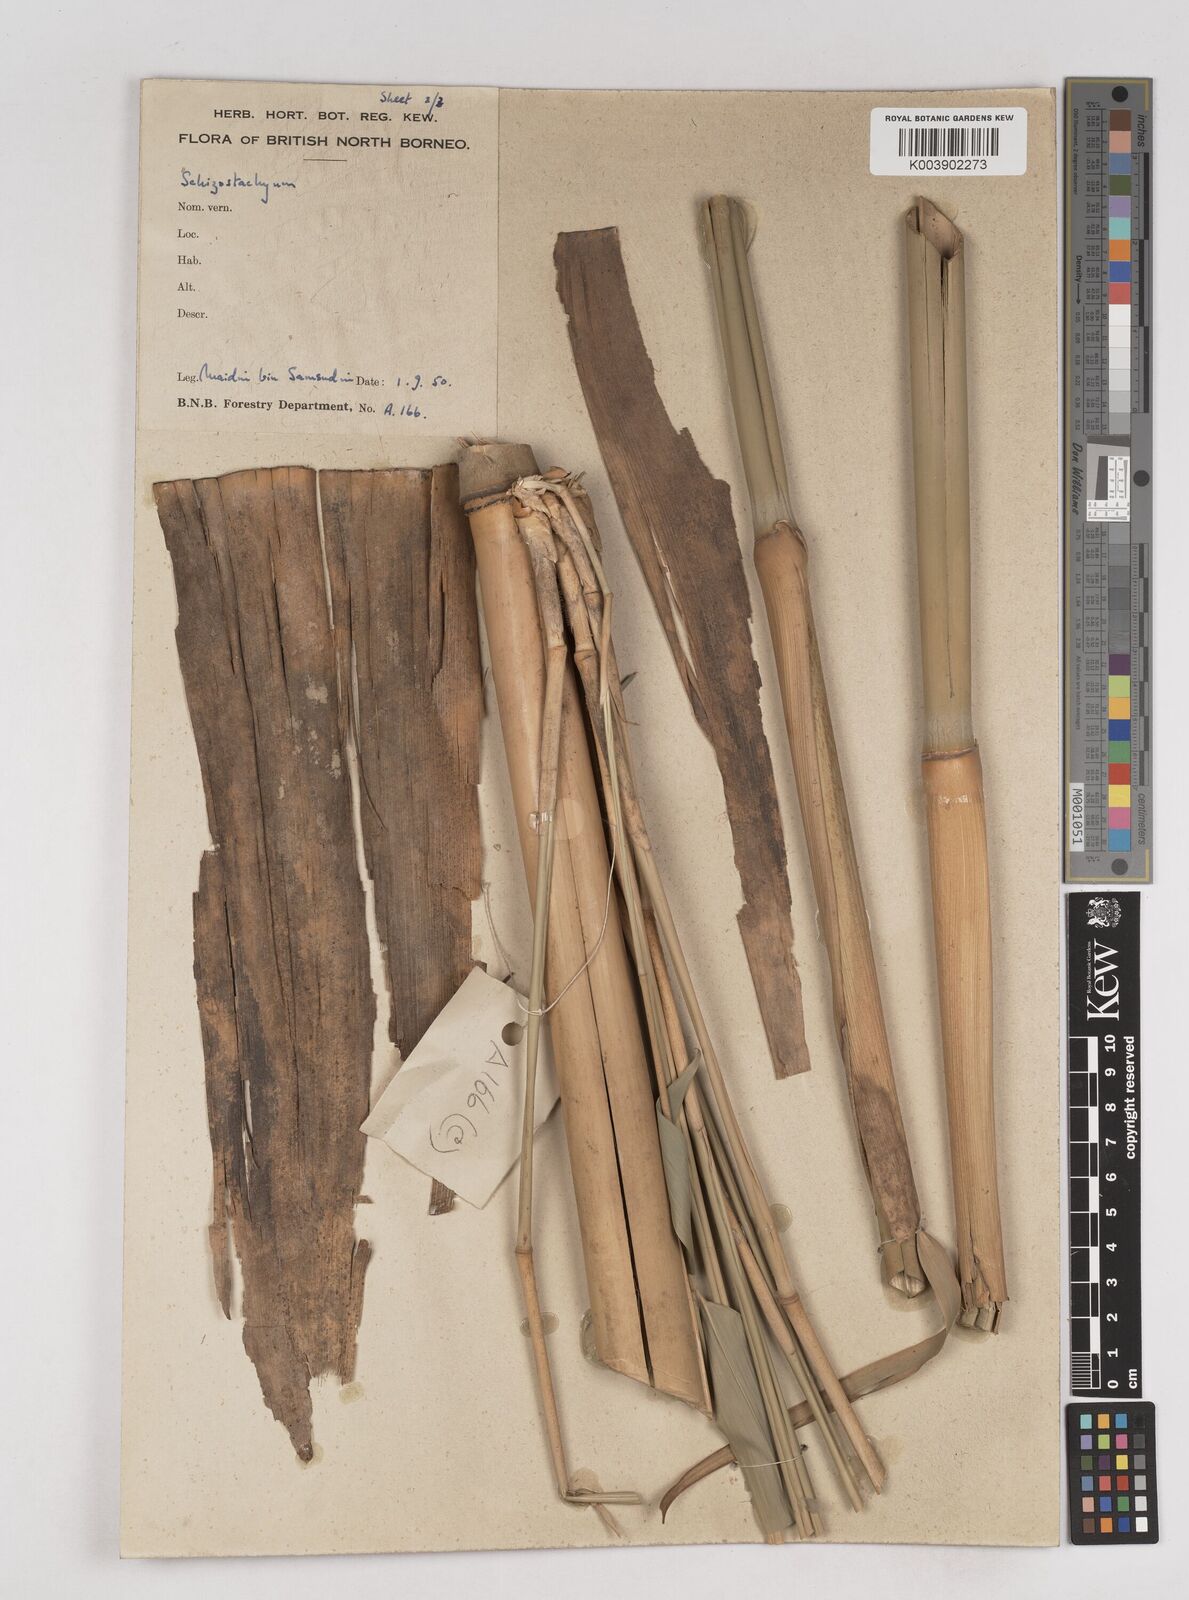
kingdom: Plantae
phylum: Tracheophyta
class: Liliopsida
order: Poales
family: Poaceae
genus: Schizostachyum
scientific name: Schizostachyum lima
